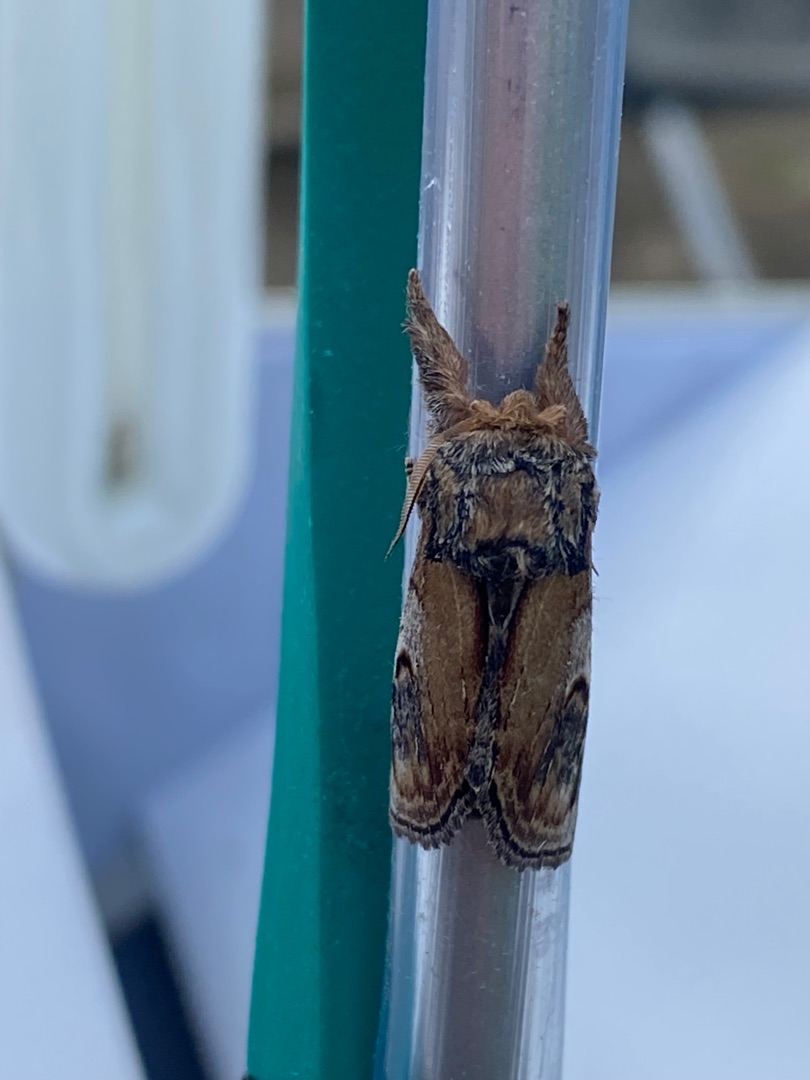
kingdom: Animalia
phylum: Arthropoda
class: Insecta
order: Lepidoptera
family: Notodontidae
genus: Notodonta
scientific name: Notodonta ziczac
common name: Zigzagspinder
